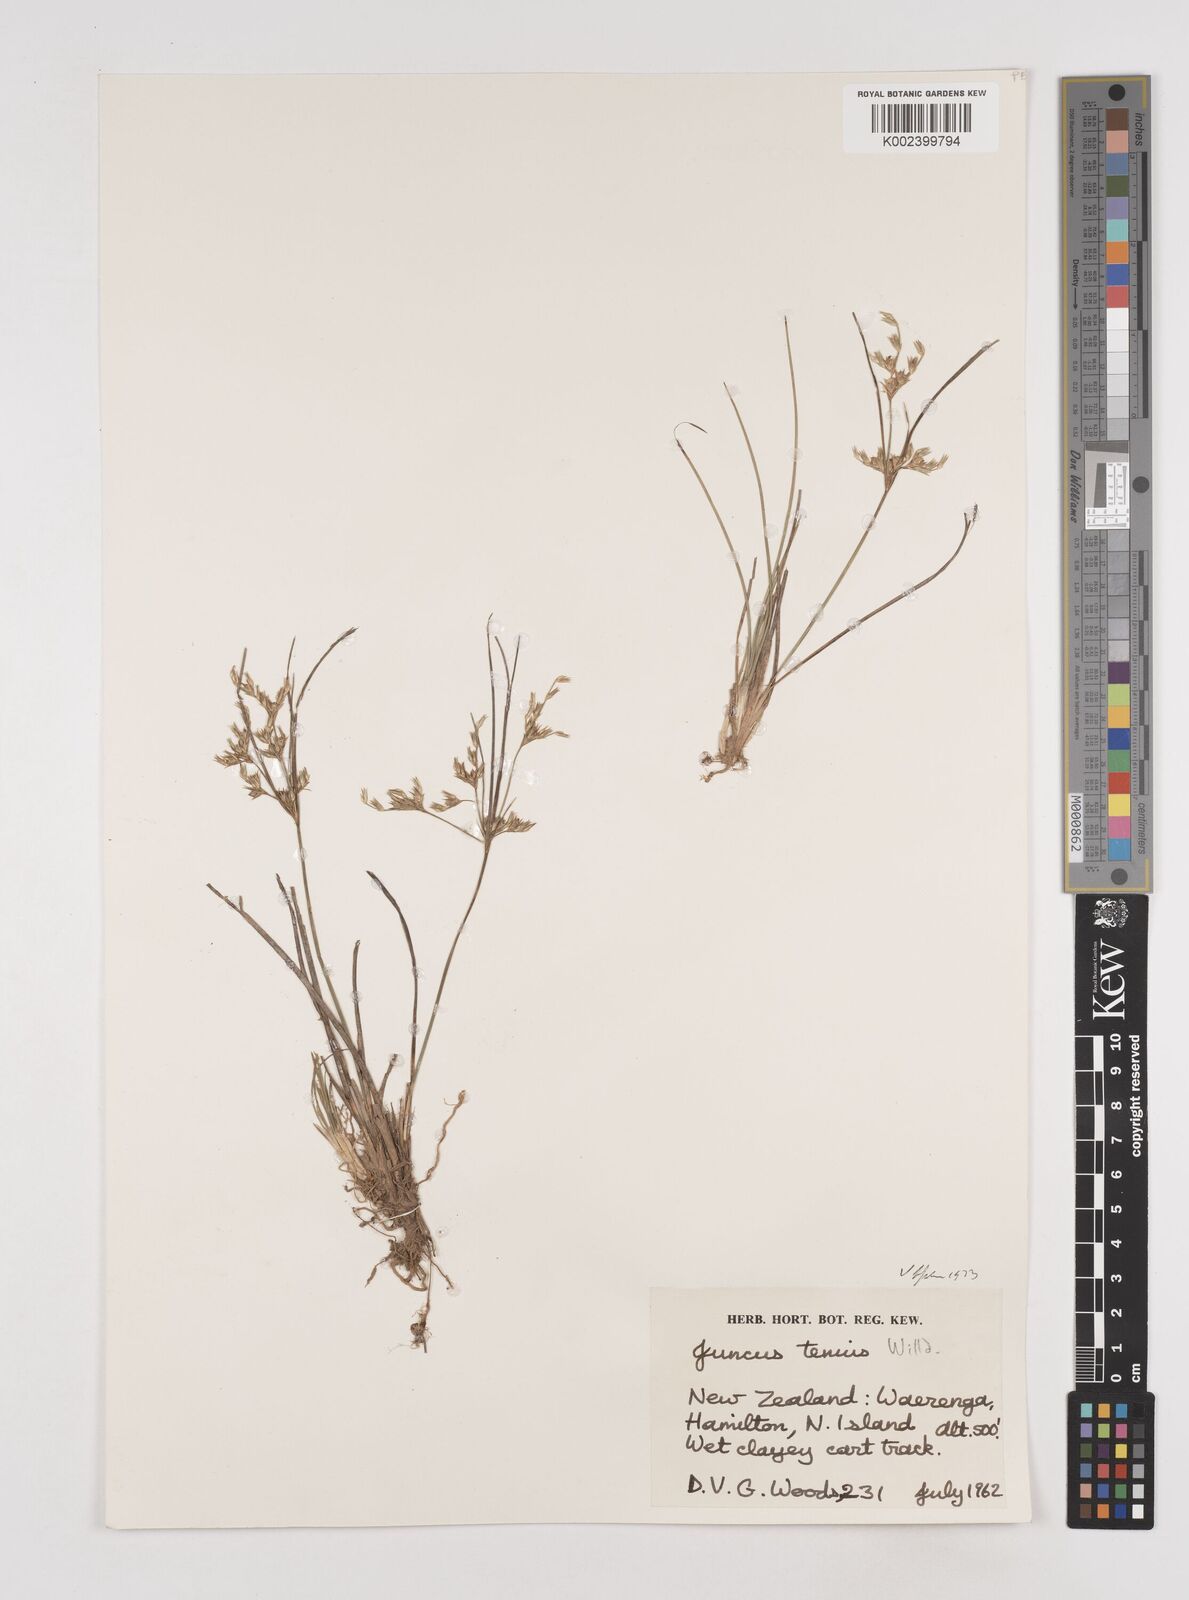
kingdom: Plantae
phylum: Tracheophyta
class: Liliopsida
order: Poales
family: Juncaceae
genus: Juncus
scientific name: Juncus tenuis
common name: Slender rush
